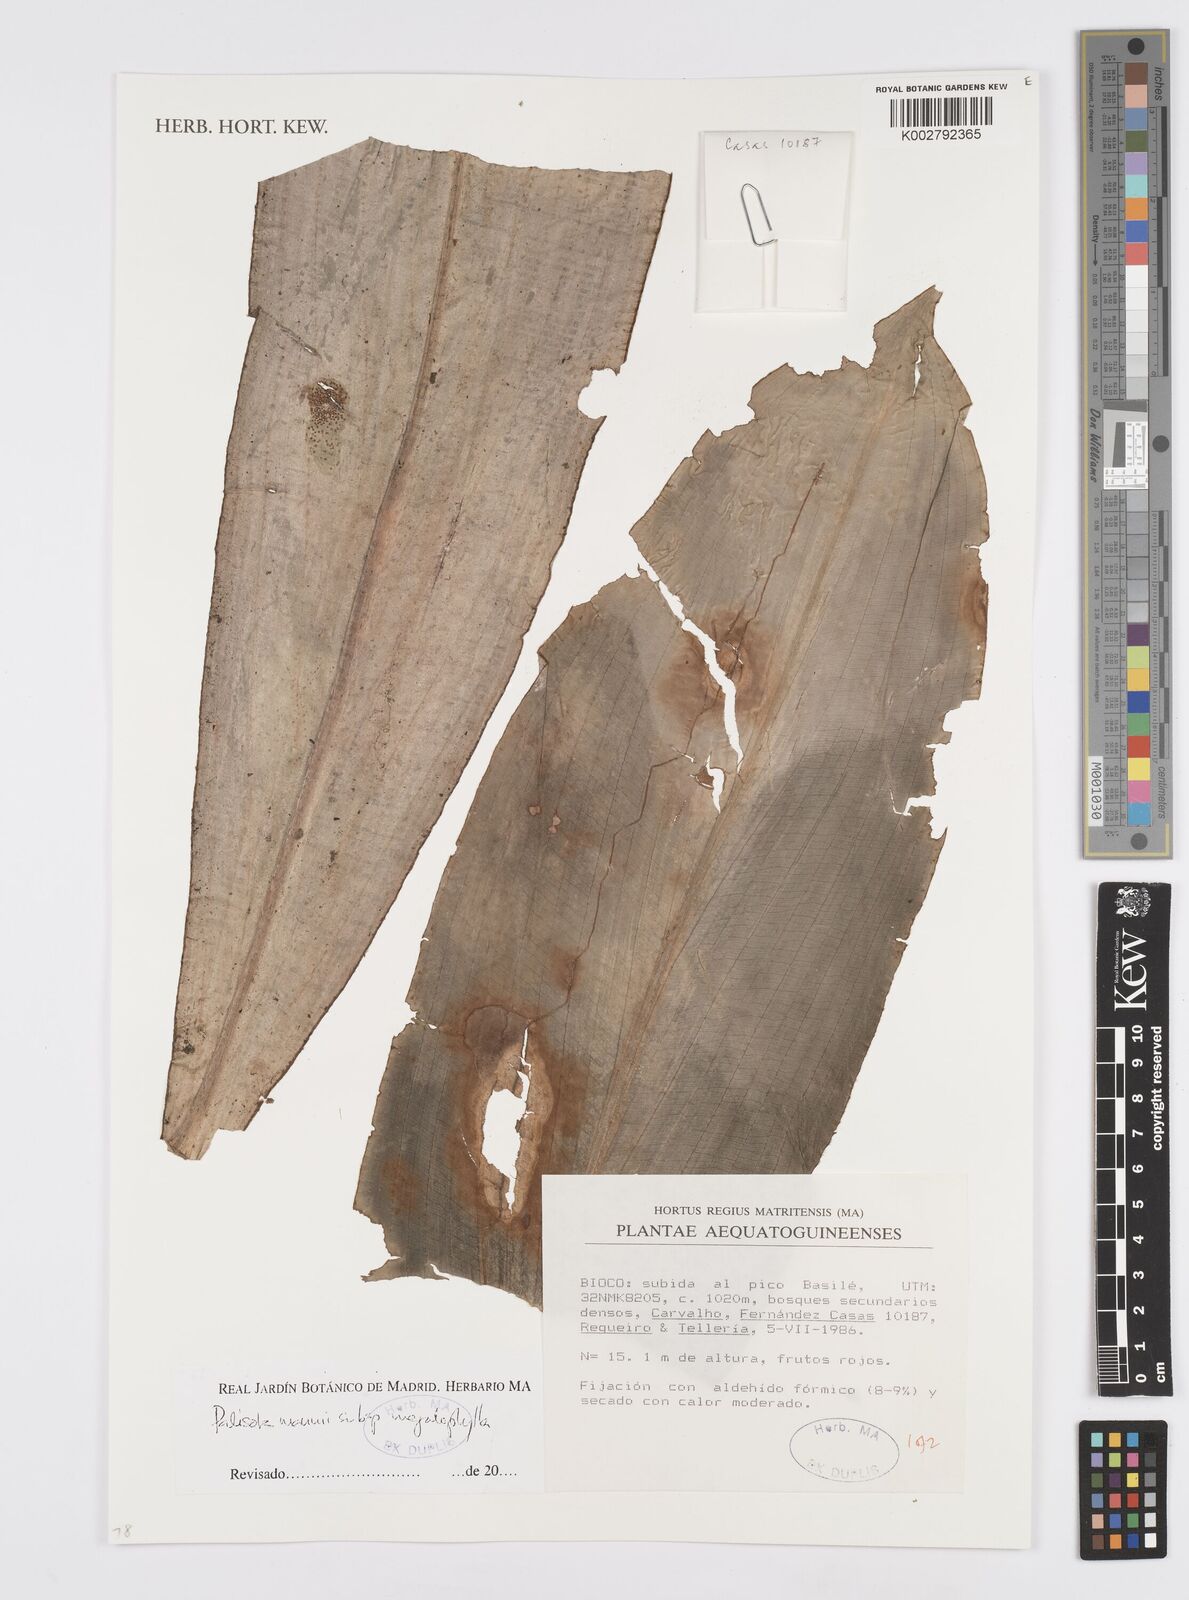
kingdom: Plantae
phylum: Tracheophyta
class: Liliopsida
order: Commelinales
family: Commelinaceae
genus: Palisota
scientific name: Palisota mannii
